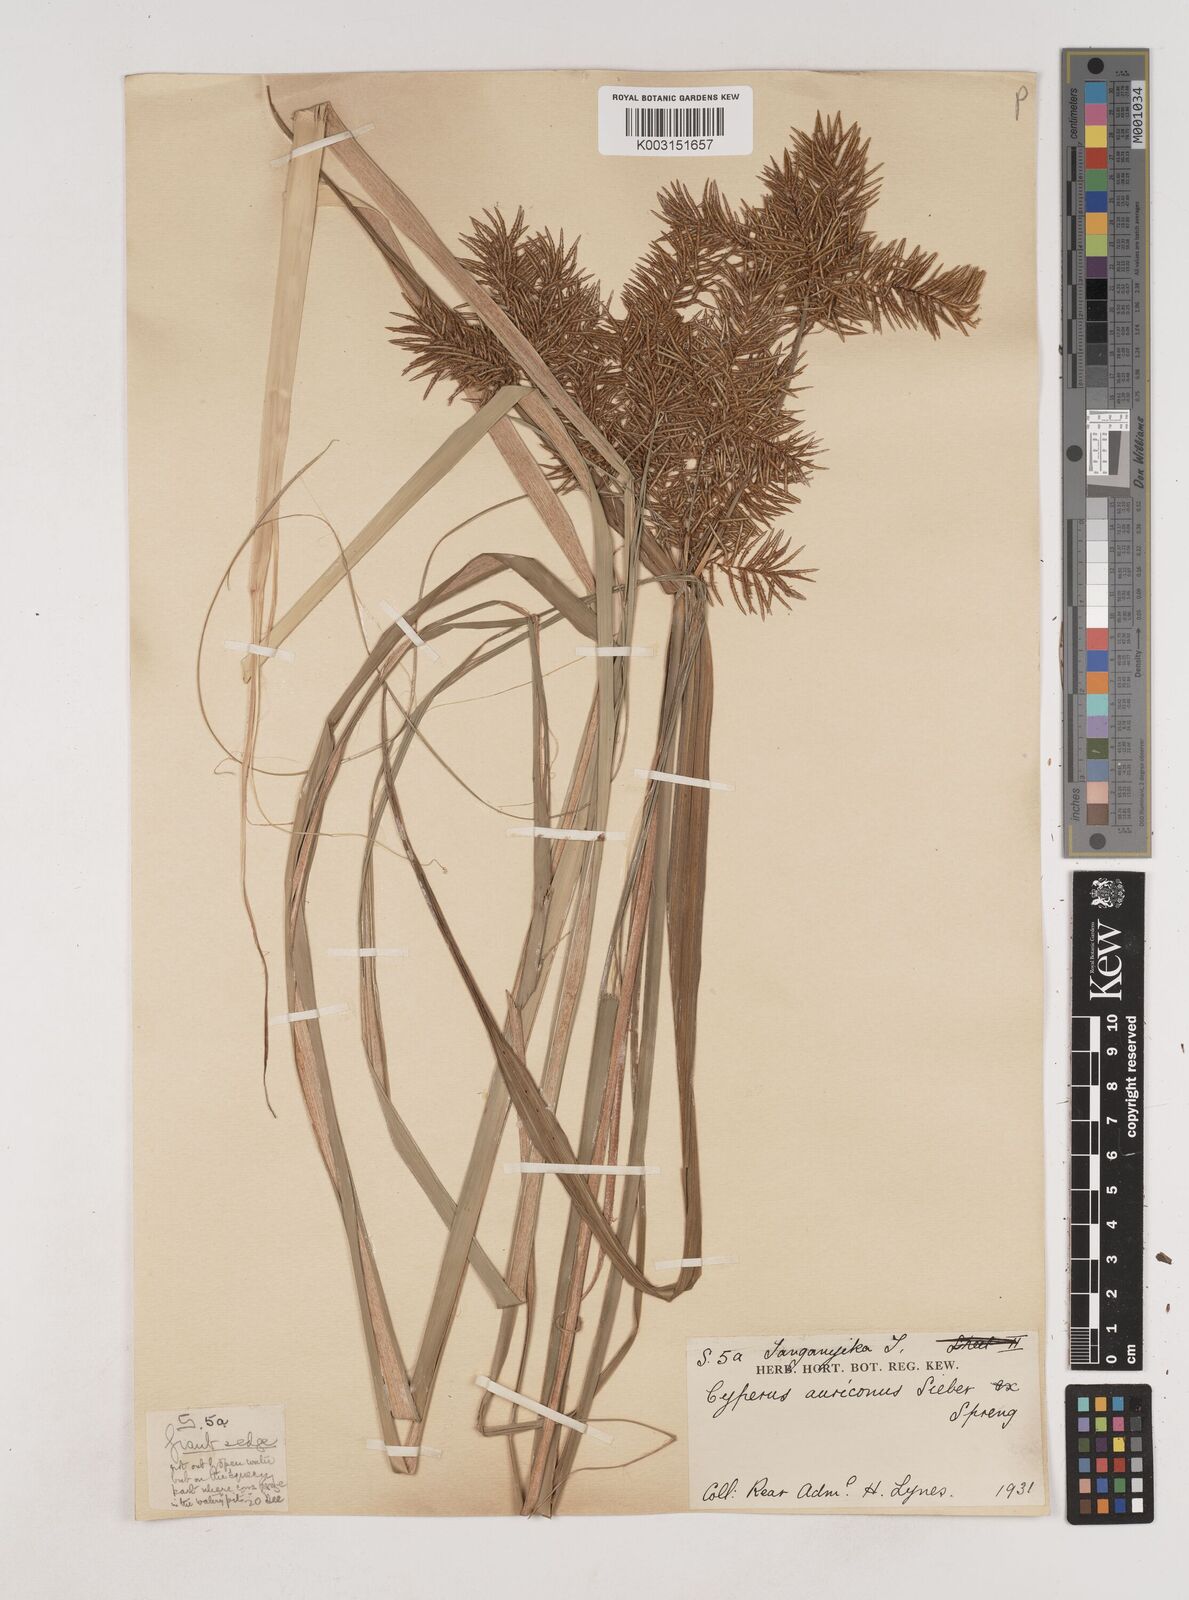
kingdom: Plantae
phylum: Tracheophyta
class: Liliopsida
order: Poales
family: Cyperaceae
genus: Cyperus
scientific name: Cyperus digitatus
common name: Finger flatsedge
